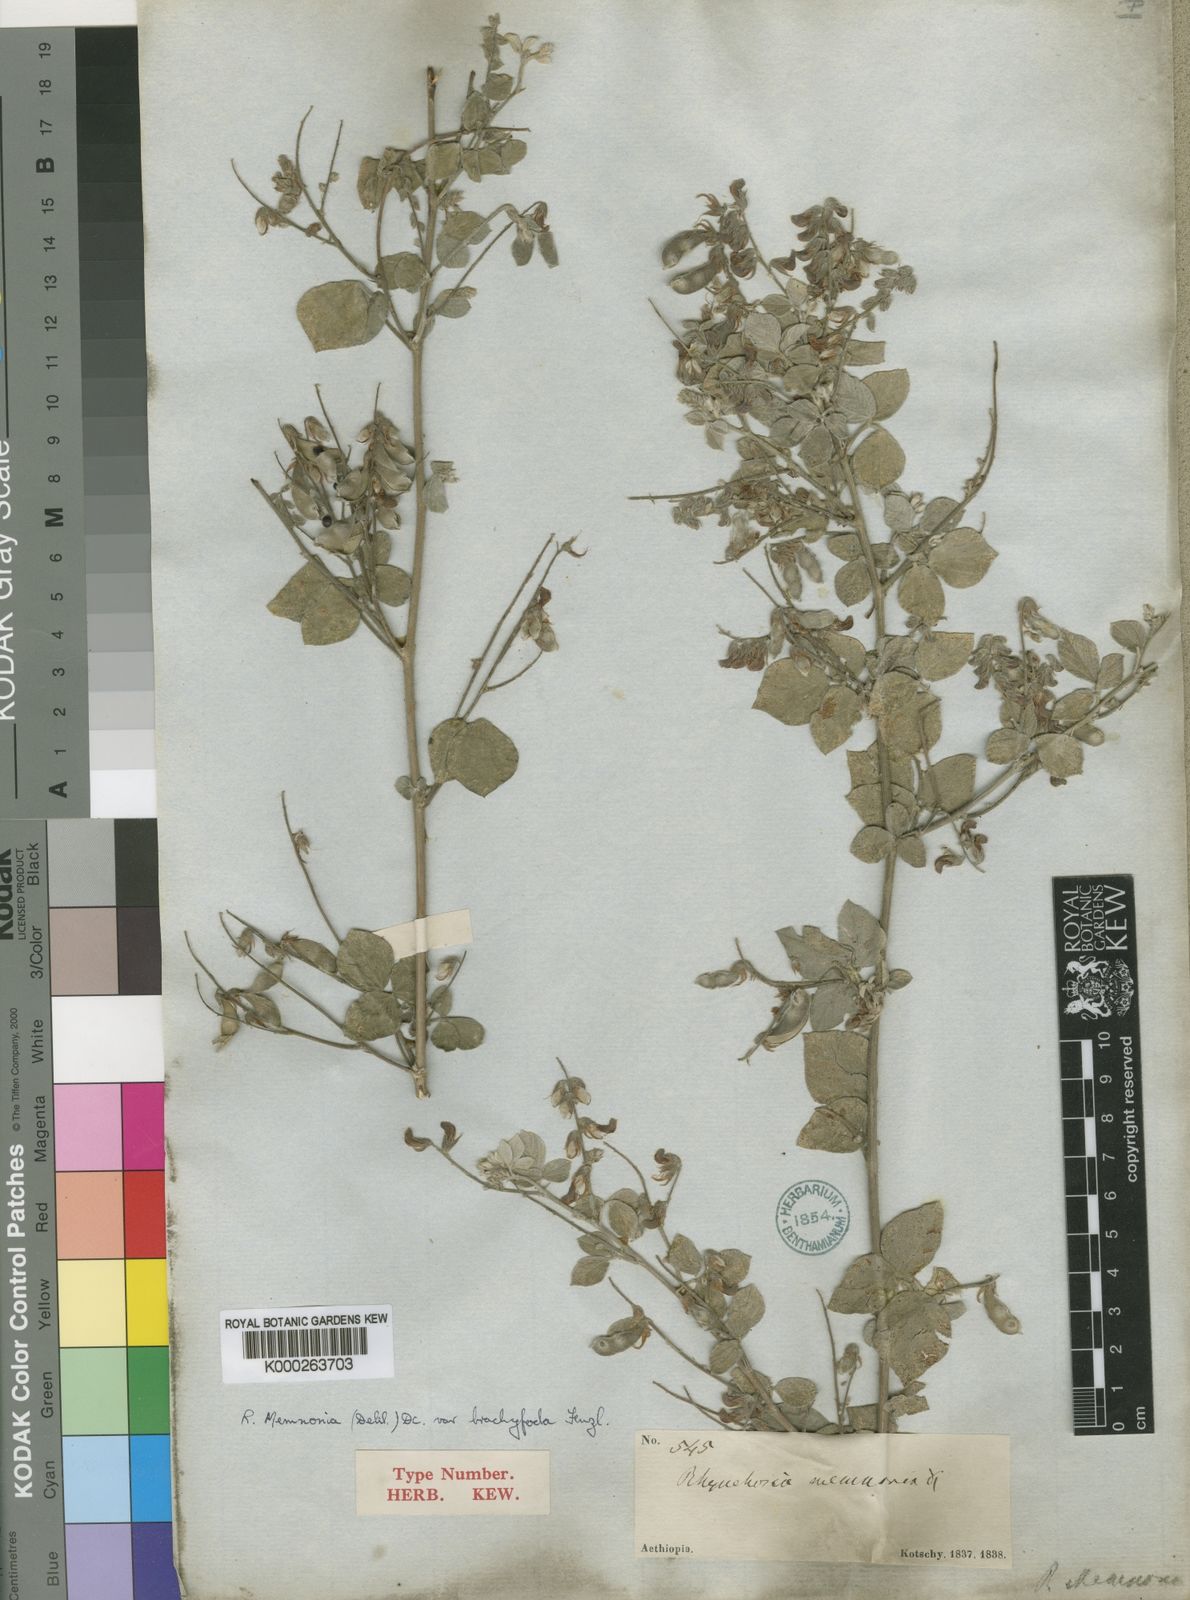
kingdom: Plantae
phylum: Tracheophyta
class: Magnoliopsida
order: Fabales
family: Fabaceae
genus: Rhynchosia
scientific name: Rhynchosia minima
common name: Least snoutbean
